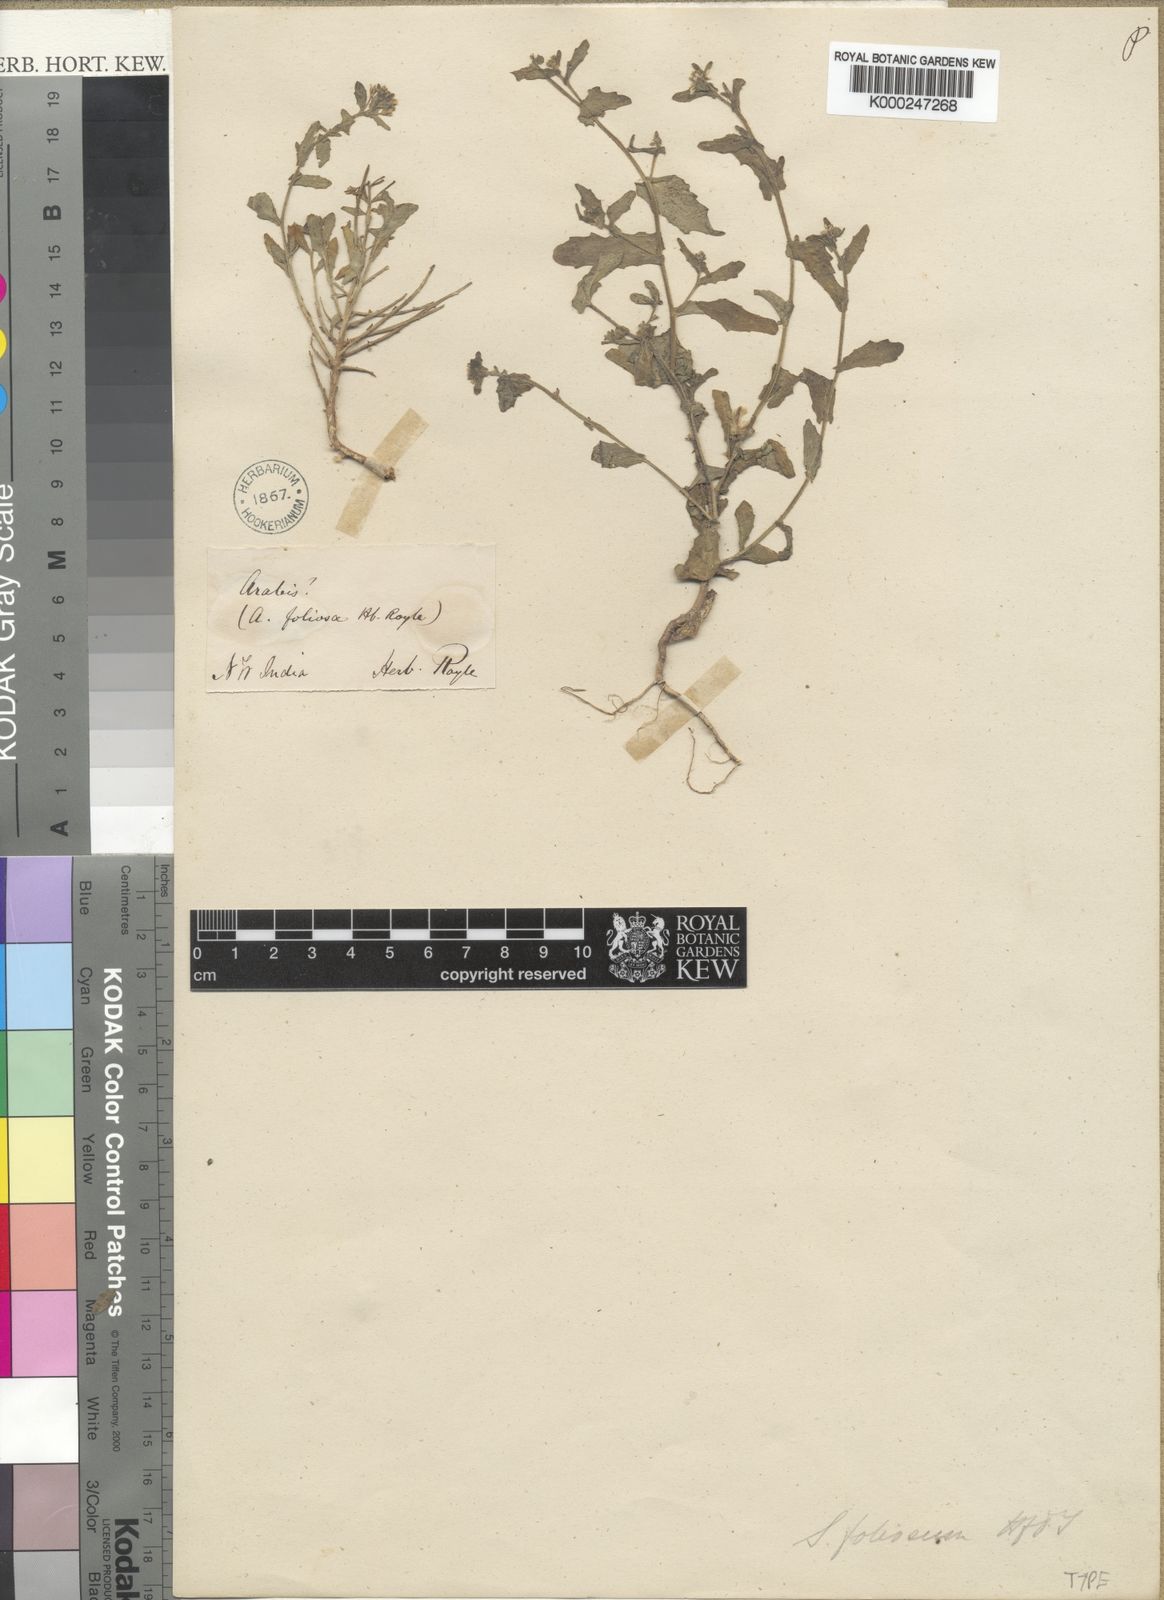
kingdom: Plantae
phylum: Tracheophyta
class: Magnoliopsida
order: Brassicales
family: Brassicaceae
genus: Olimarabidopsis
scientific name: Olimarabidopsis
